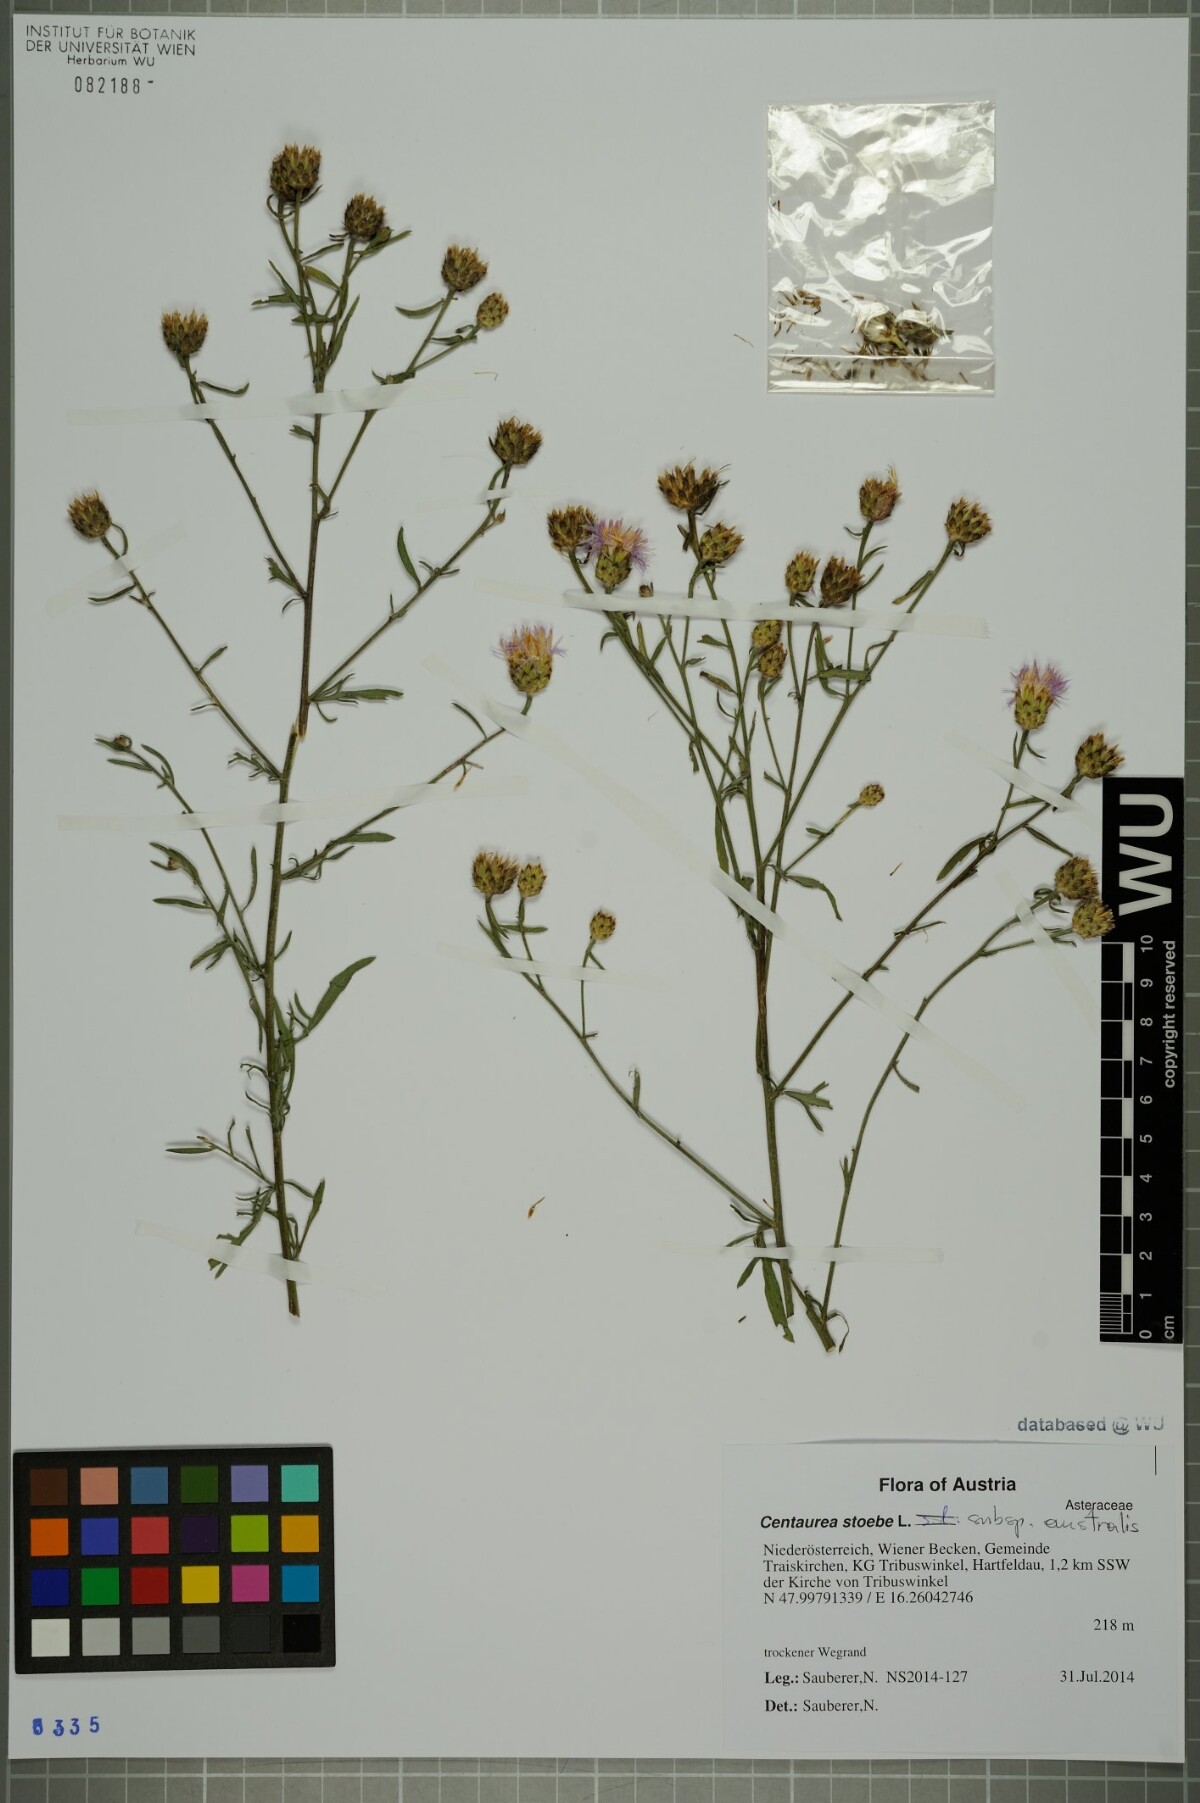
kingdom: Plantae
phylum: Tracheophyta
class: Magnoliopsida
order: Asterales
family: Asteraceae
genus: Centaurea
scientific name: Centaurea australis
